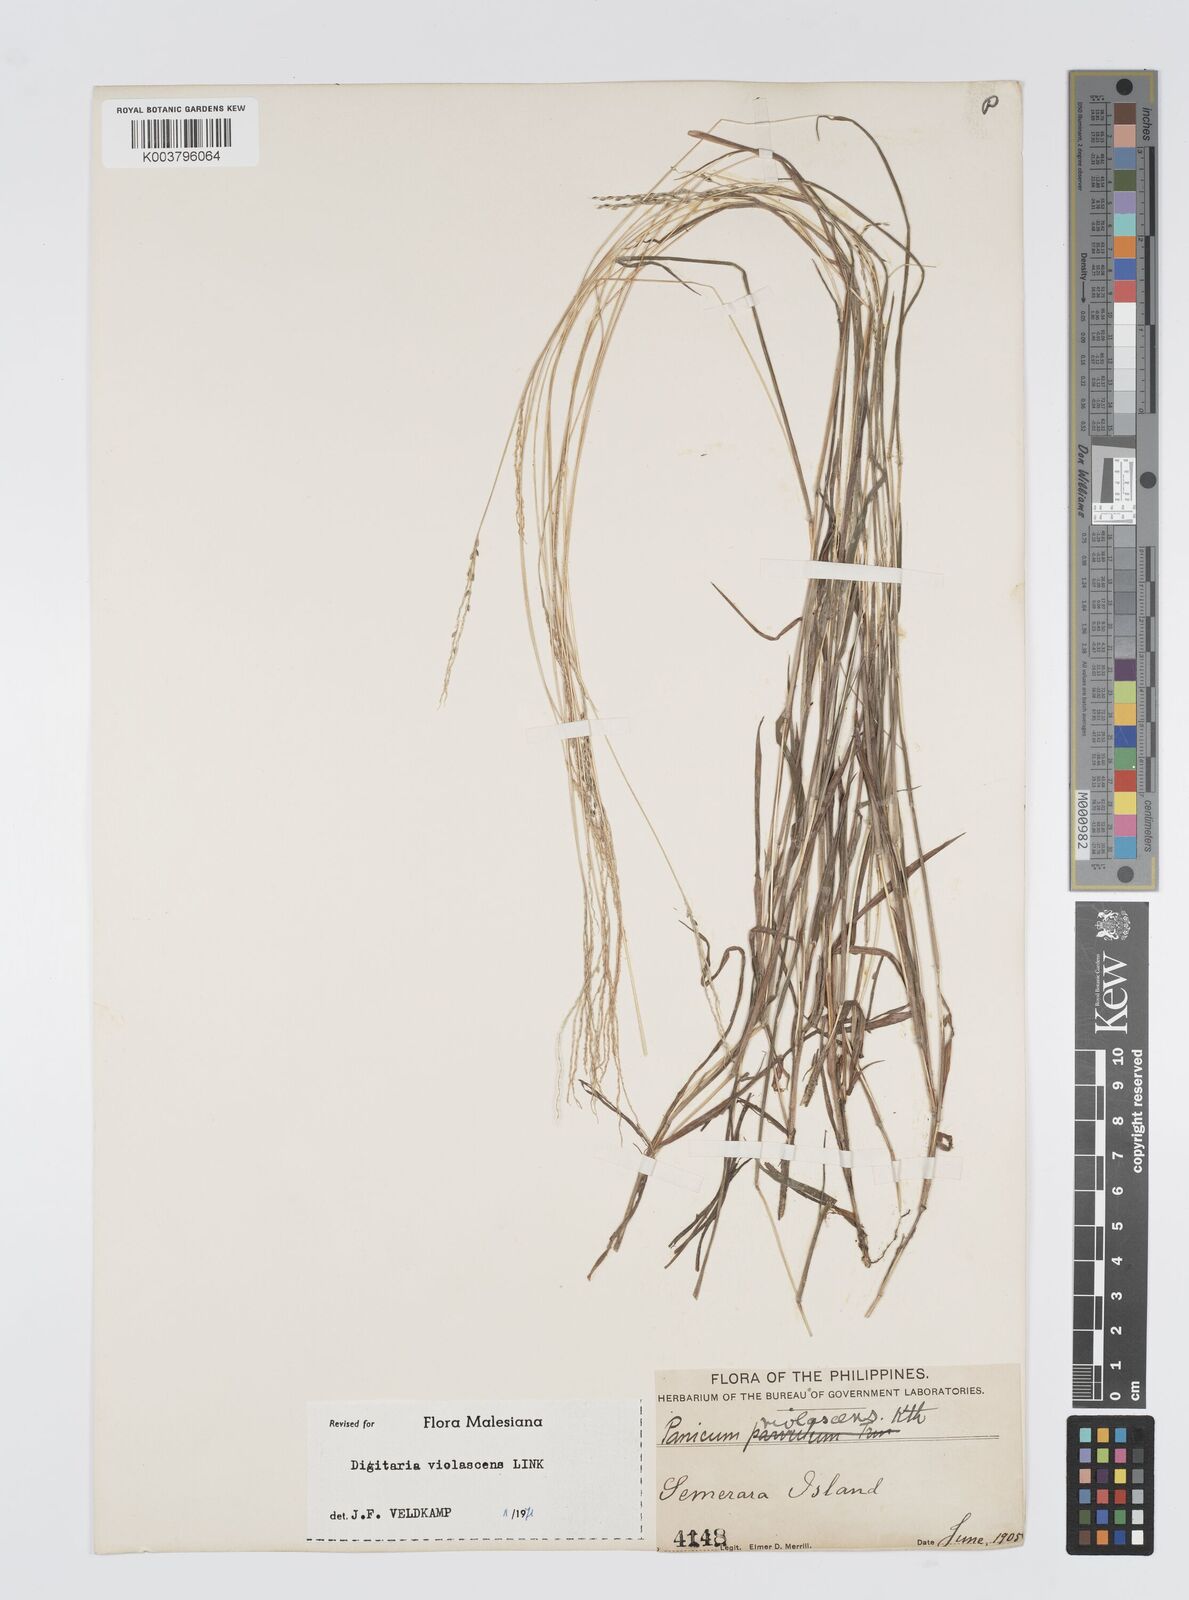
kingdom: Plantae
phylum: Tracheophyta
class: Liliopsida
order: Poales
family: Poaceae
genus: Digitaria
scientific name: Digitaria violascens
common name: Violet crabgrass
